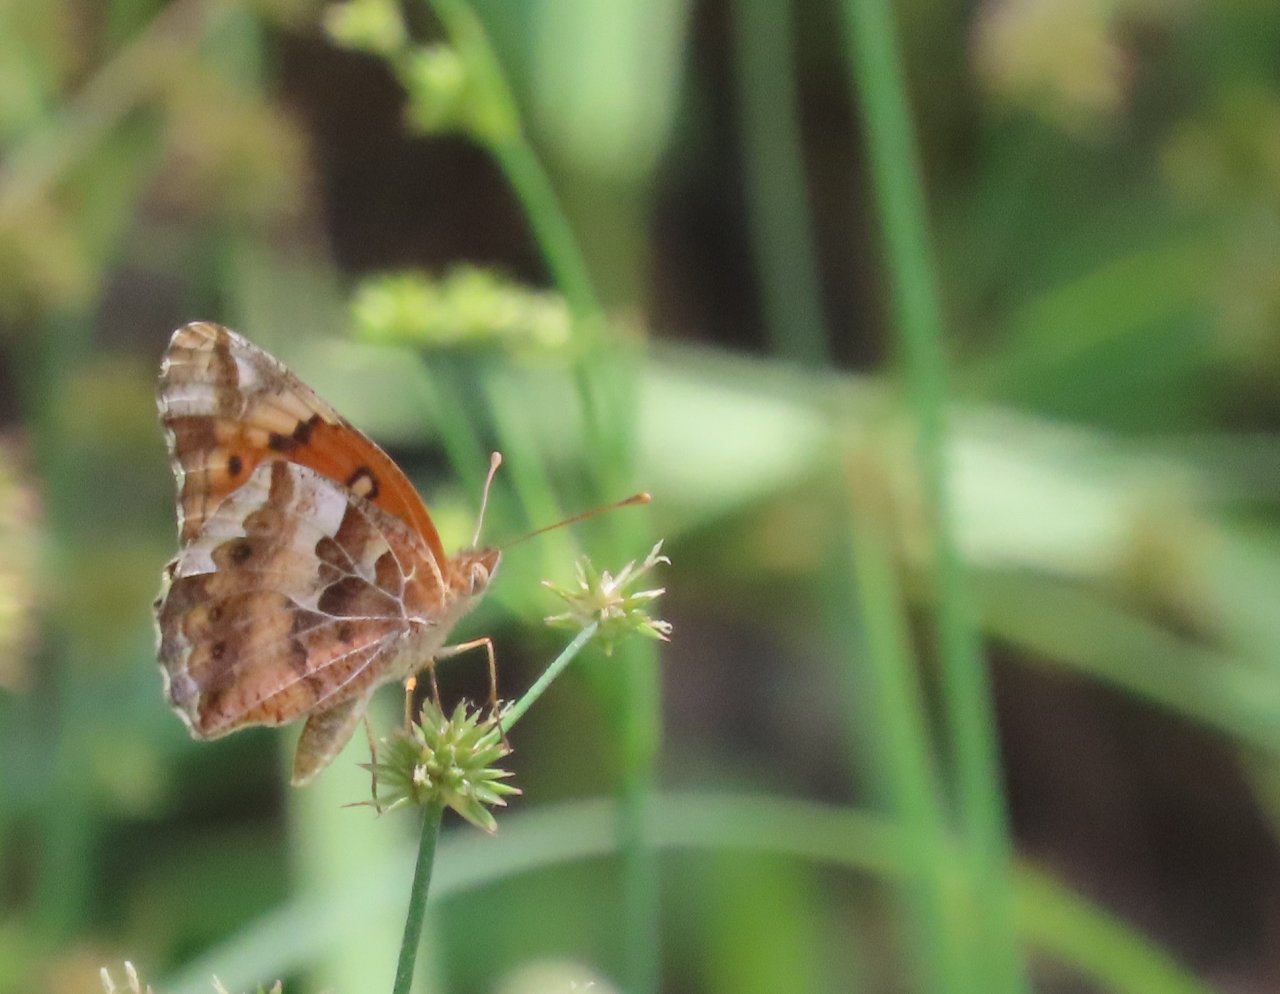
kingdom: Animalia
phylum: Arthropoda
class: Insecta
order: Lepidoptera
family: Nymphalidae
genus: Euptoieta
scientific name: Euptoieta claudia
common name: Variegated Fritillary
